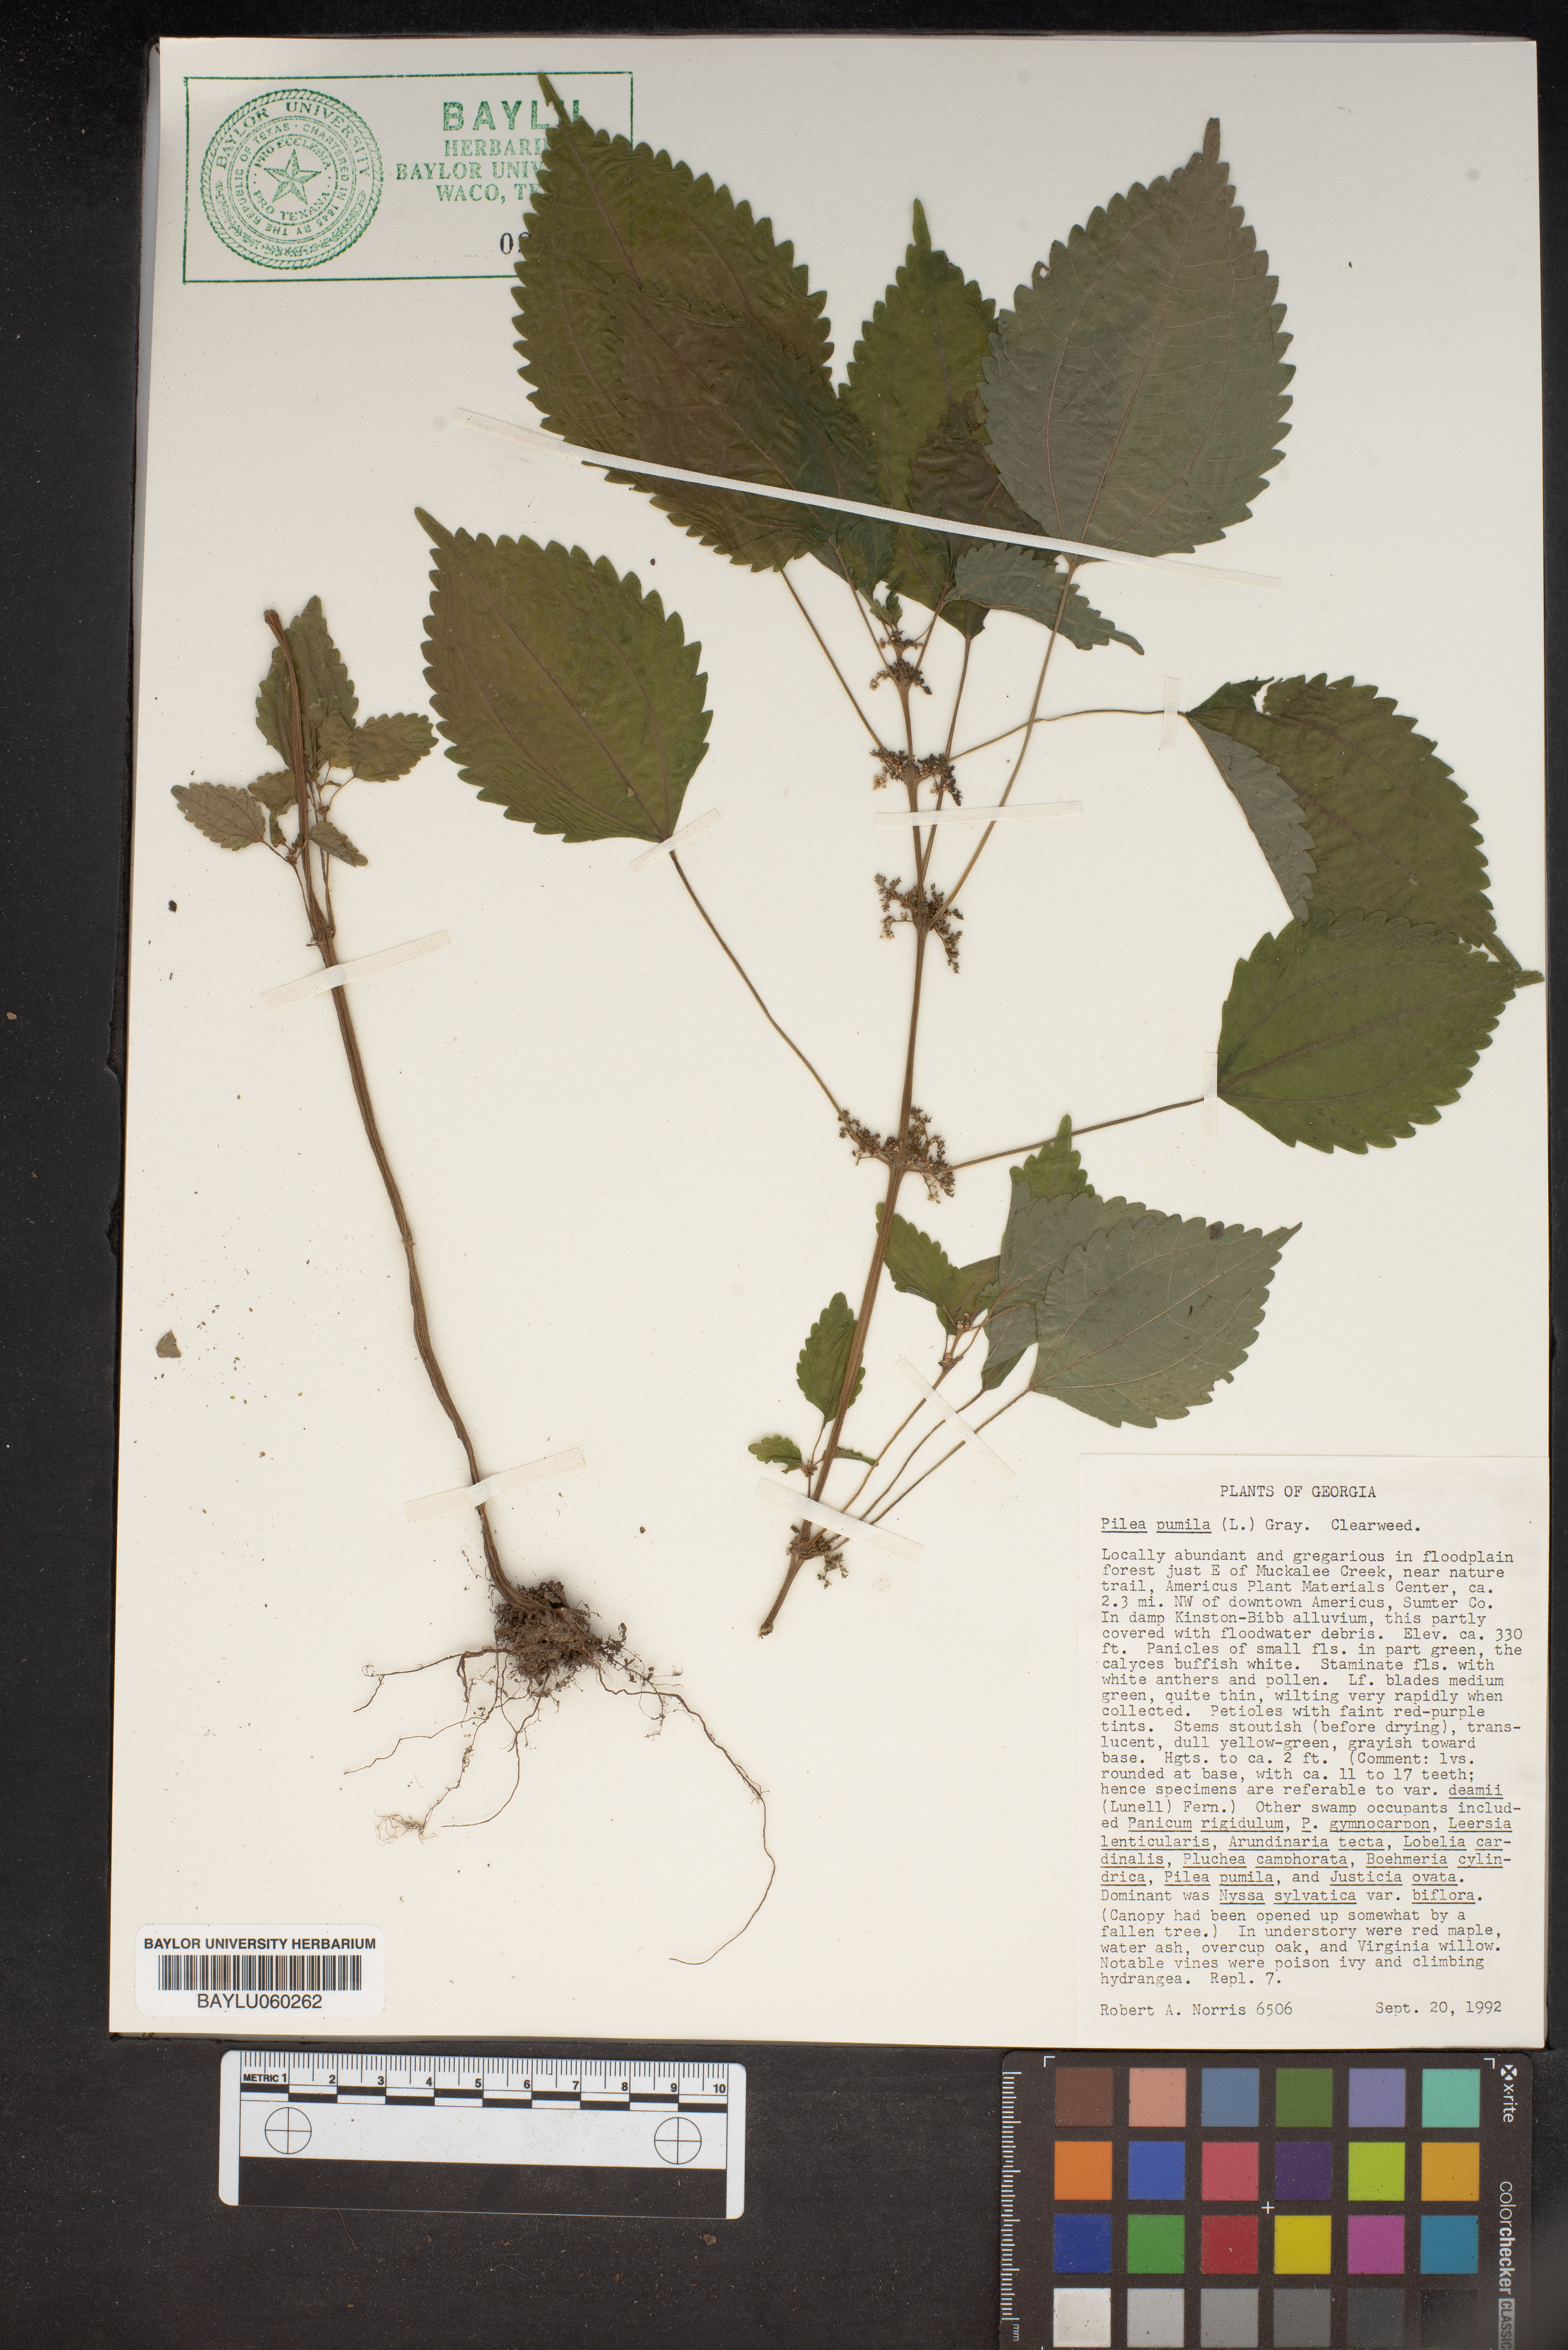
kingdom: Plantae
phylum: Tracheophyta
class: Magnoliopsida
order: Rosales
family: Urticaceae
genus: Pilea
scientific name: Pilea pumila
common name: Clearweed
